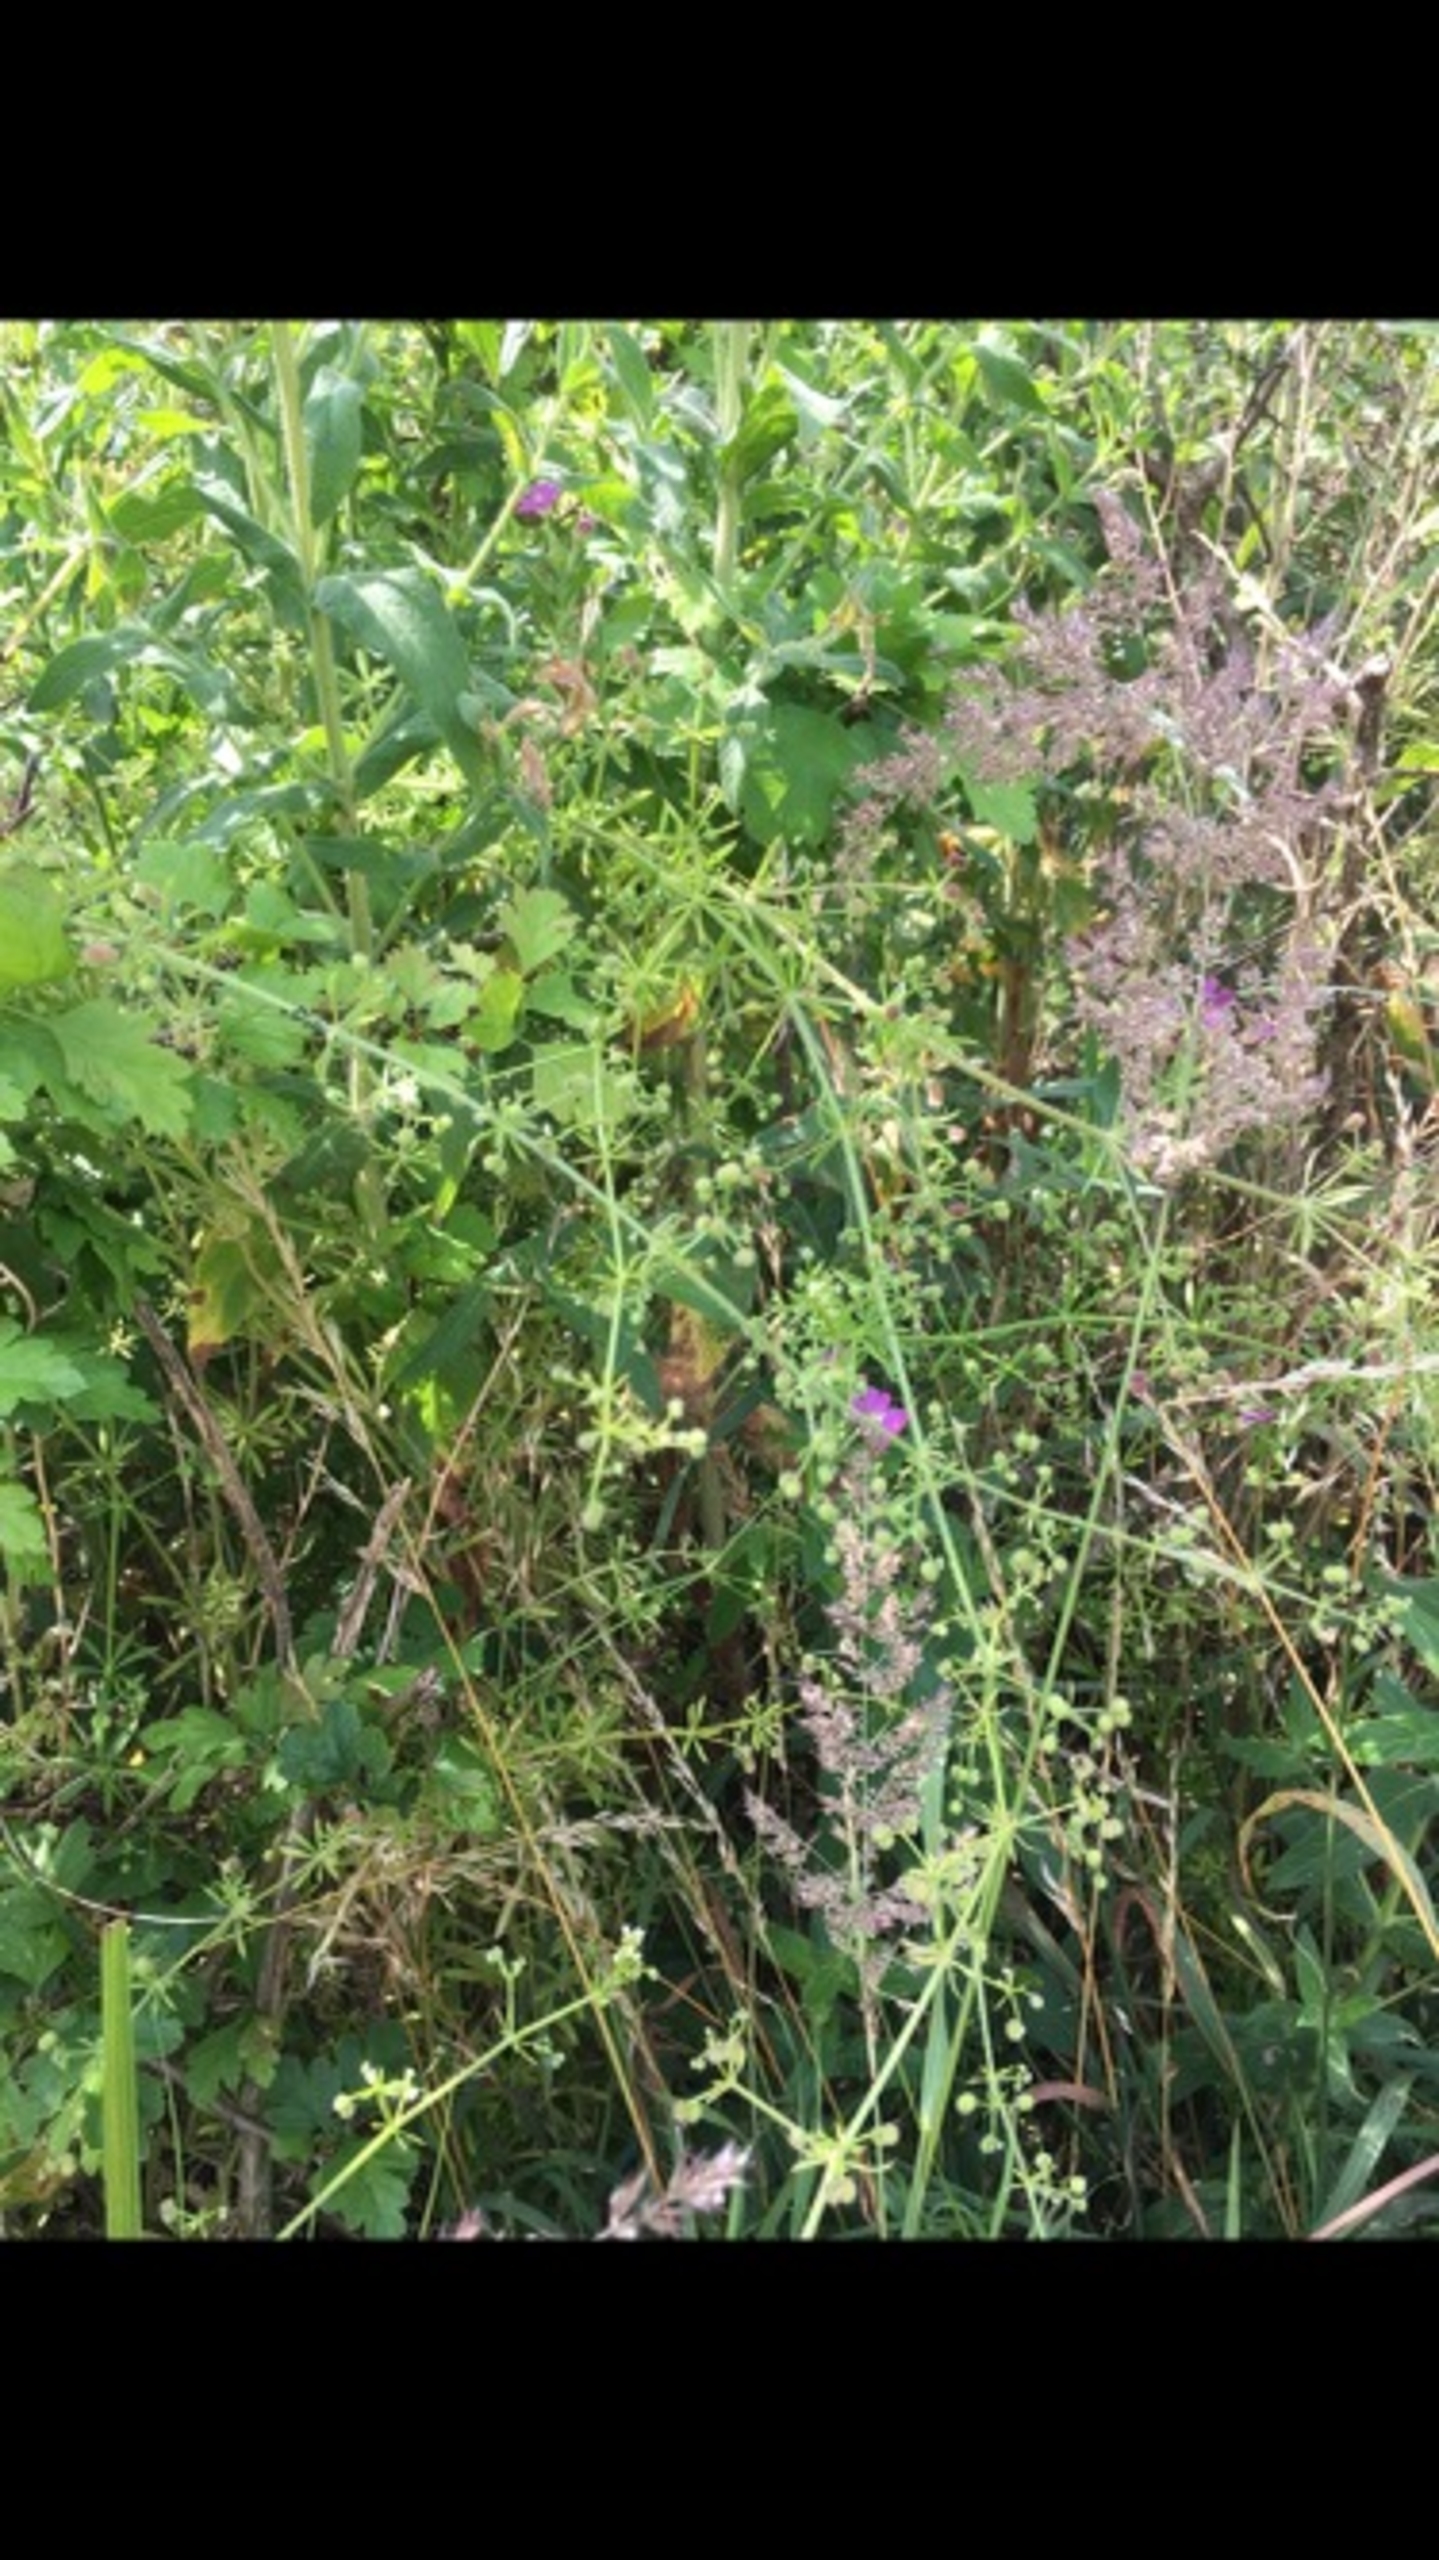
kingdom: Plantae
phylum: Tracheophyta
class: Magnoliopsida
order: Gentianales
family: Rubiaceae
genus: Galium
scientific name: Galium aparine
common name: Burre-snerre
